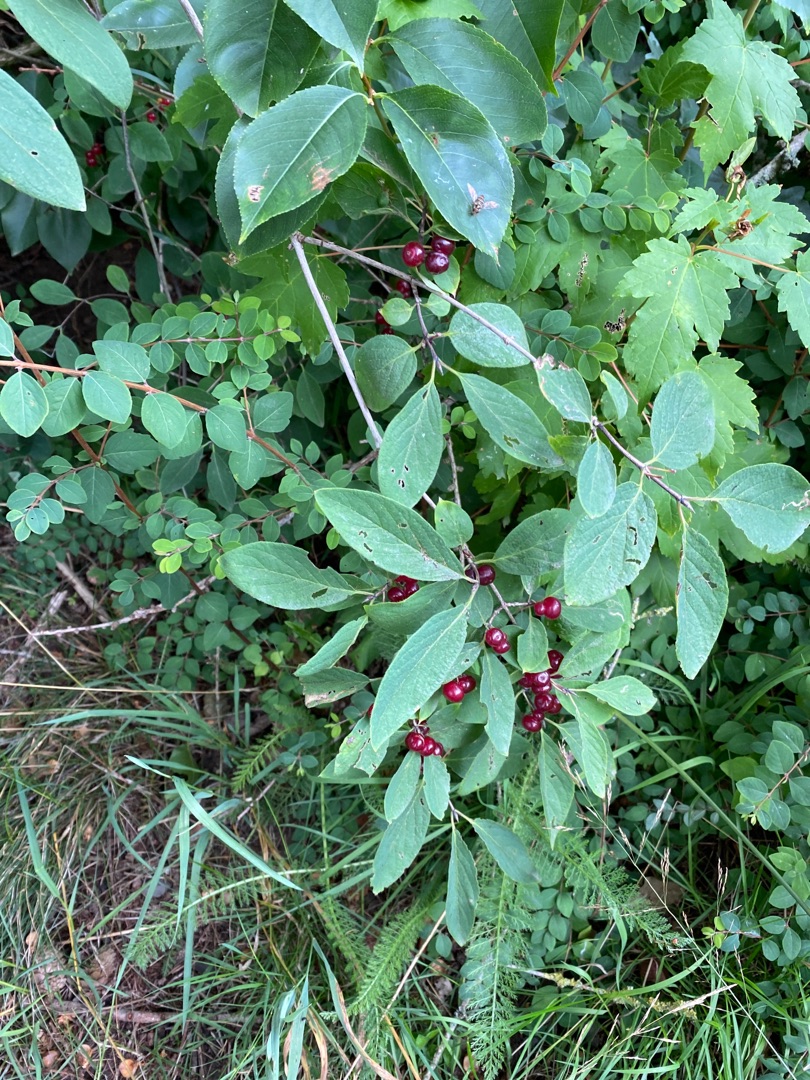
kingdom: Plantae
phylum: Tracheophyta
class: Magnoliopsida
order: Dipsacales
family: Caprifoliaceae
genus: Lonicera
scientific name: Lonicera xylosteum
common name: Dunet gedeblad
